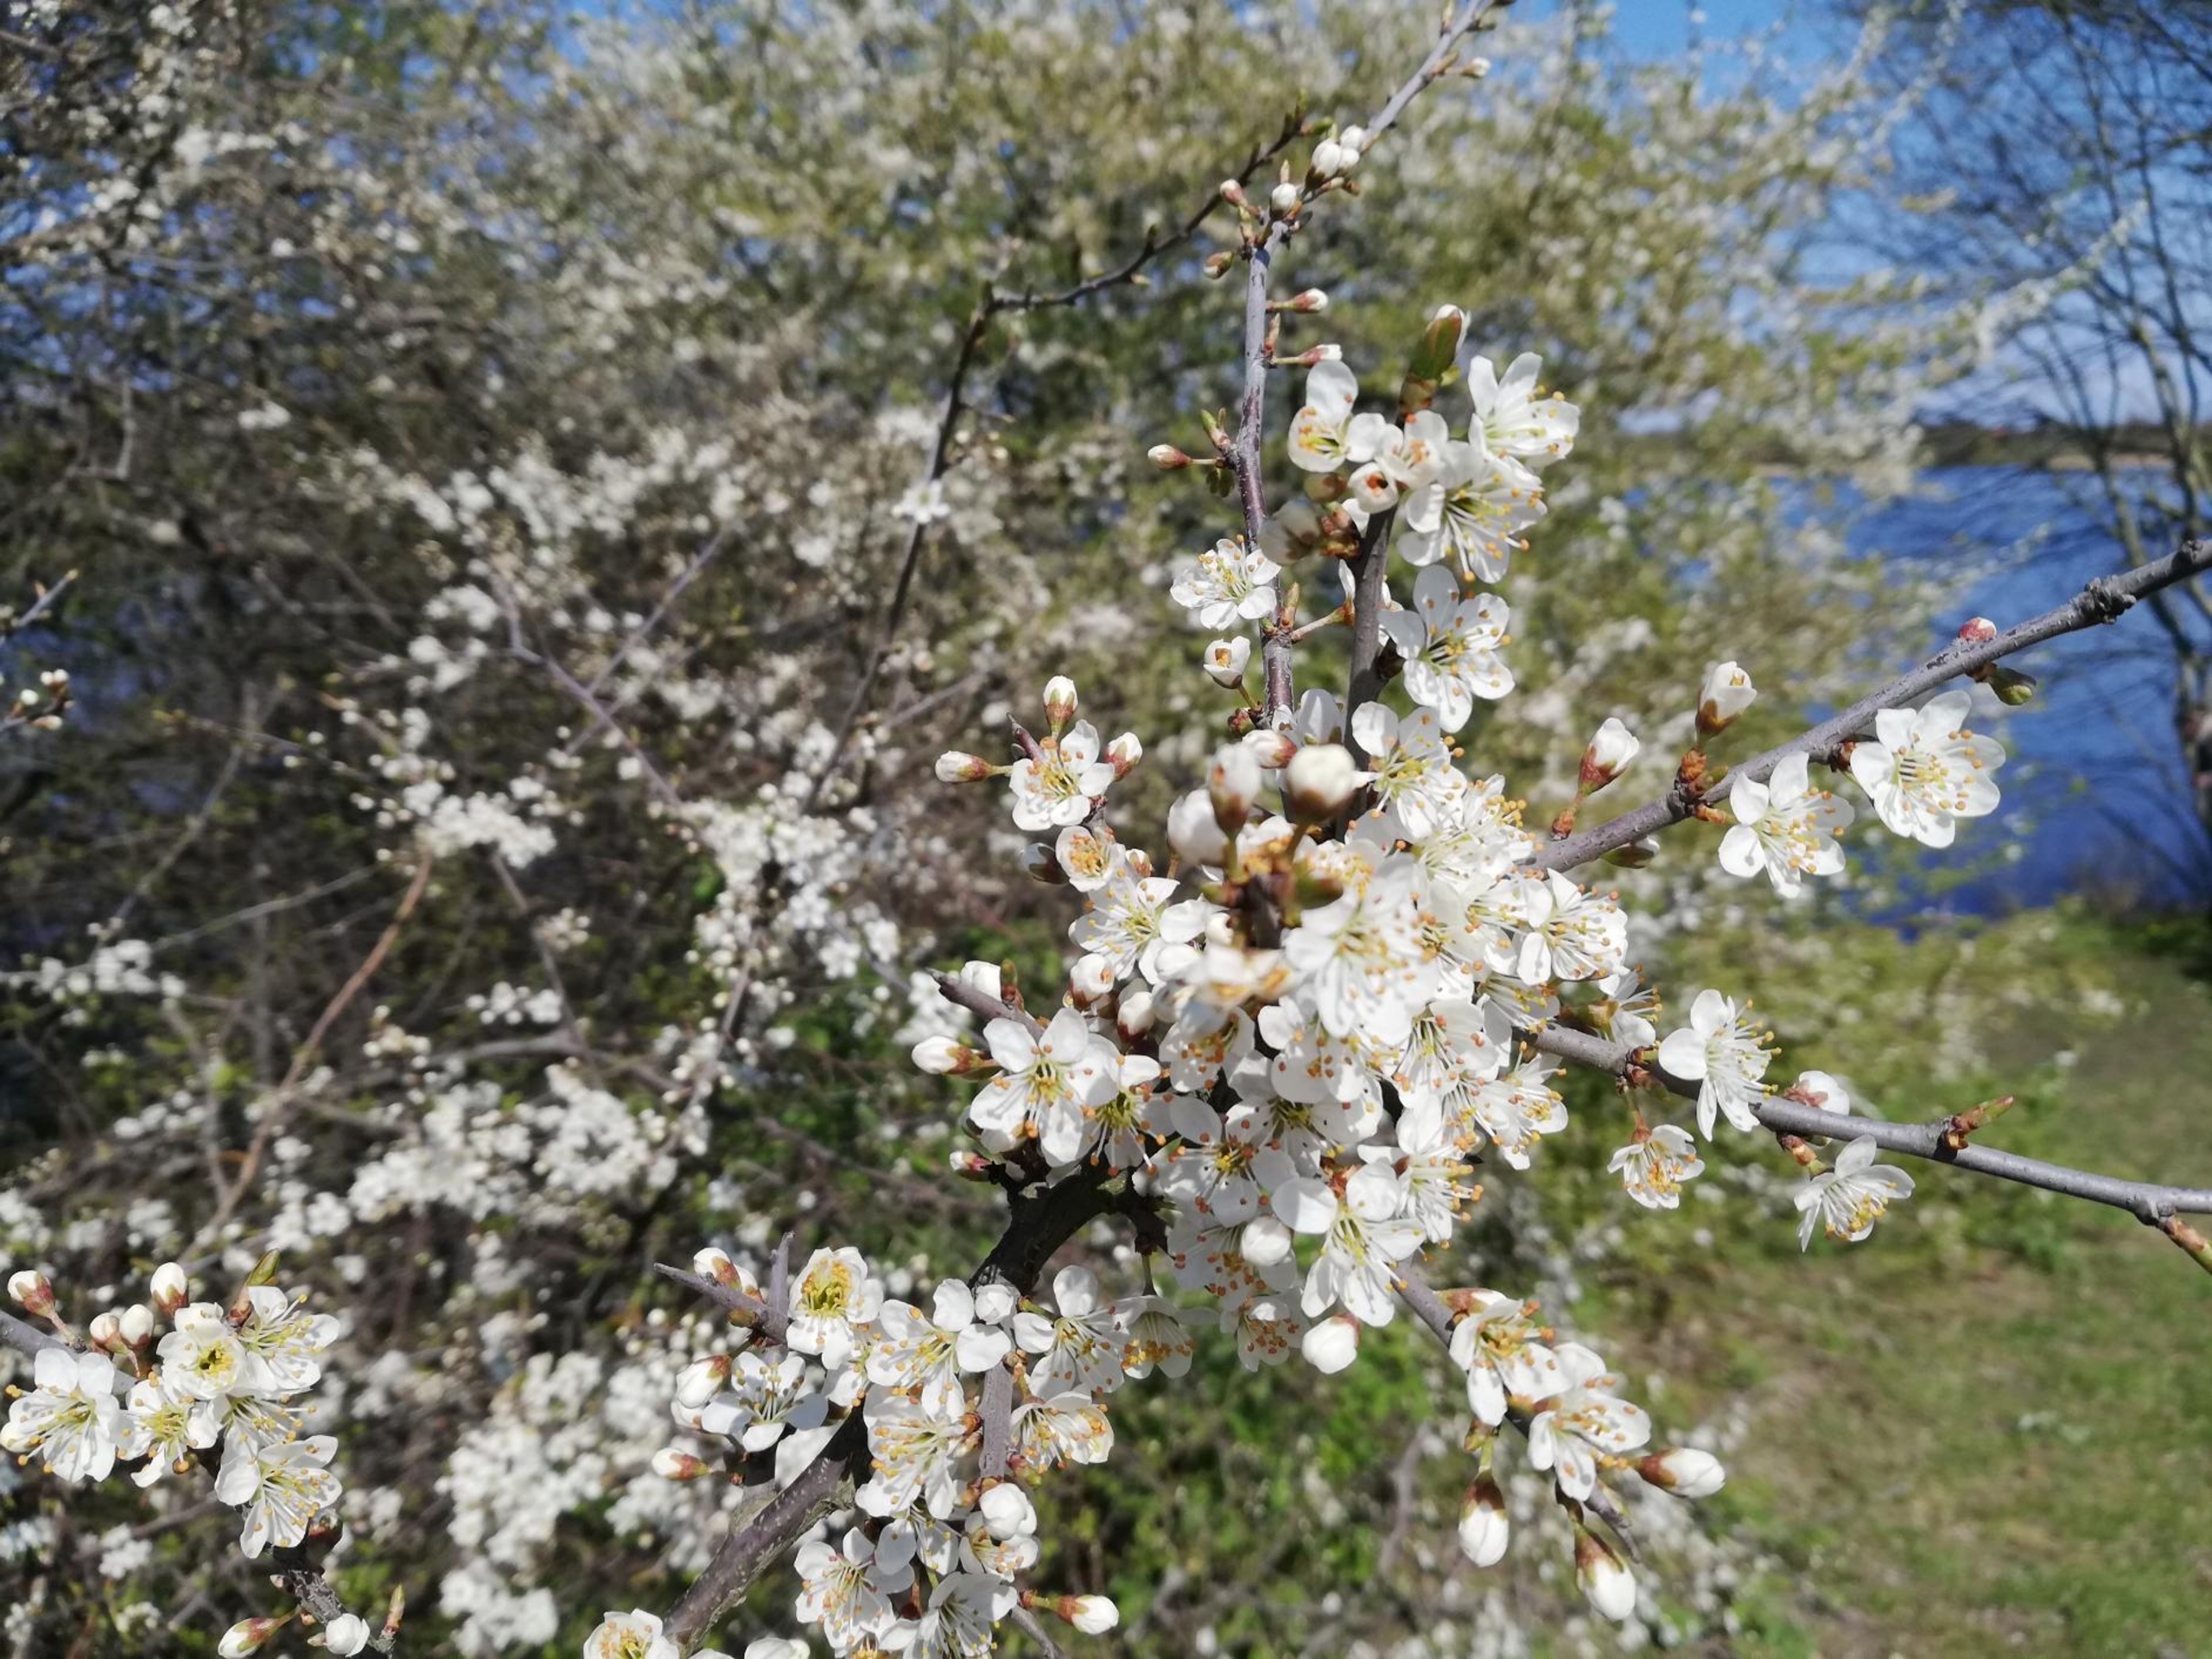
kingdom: Plantae
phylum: Tracheophyta
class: Magnoliopsida
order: Rosales
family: Rosaceae
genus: Prunus
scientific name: Prunus spinosa
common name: Slåen
